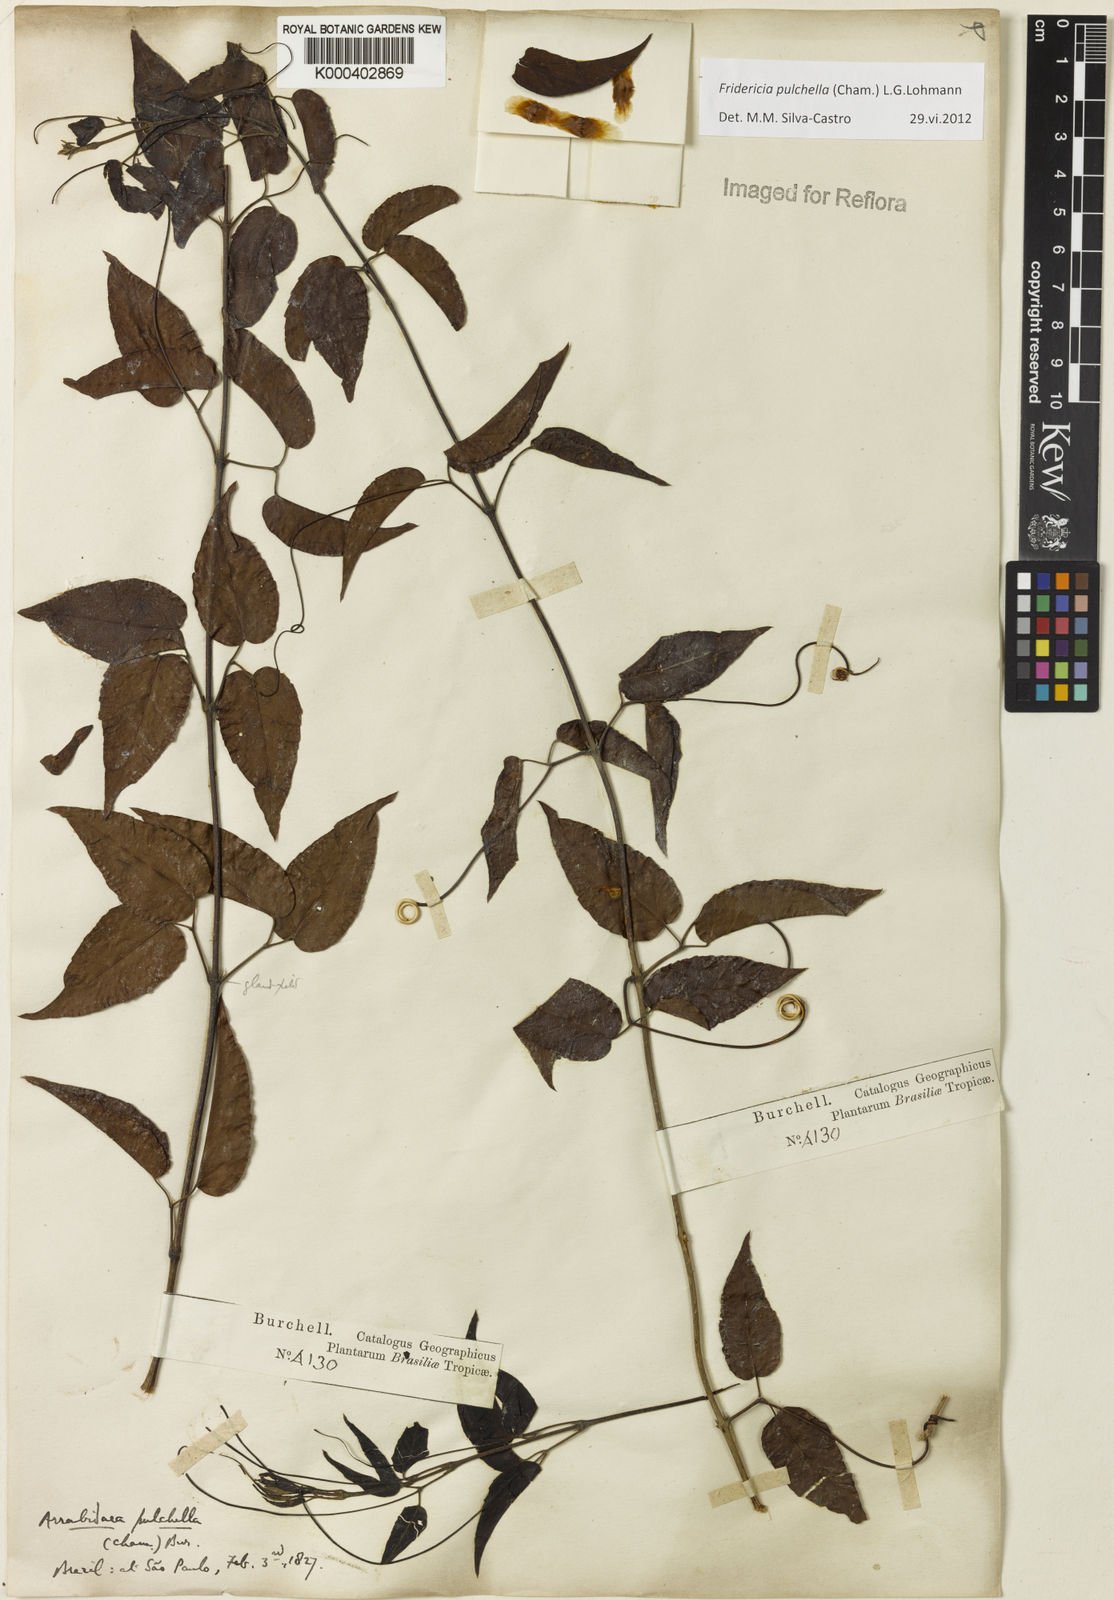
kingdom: Plantae
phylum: Tracheophyta
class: Magnoliopsida
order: Lamiales
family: Bignoniaceae
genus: Fridericia
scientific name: Fridericia
